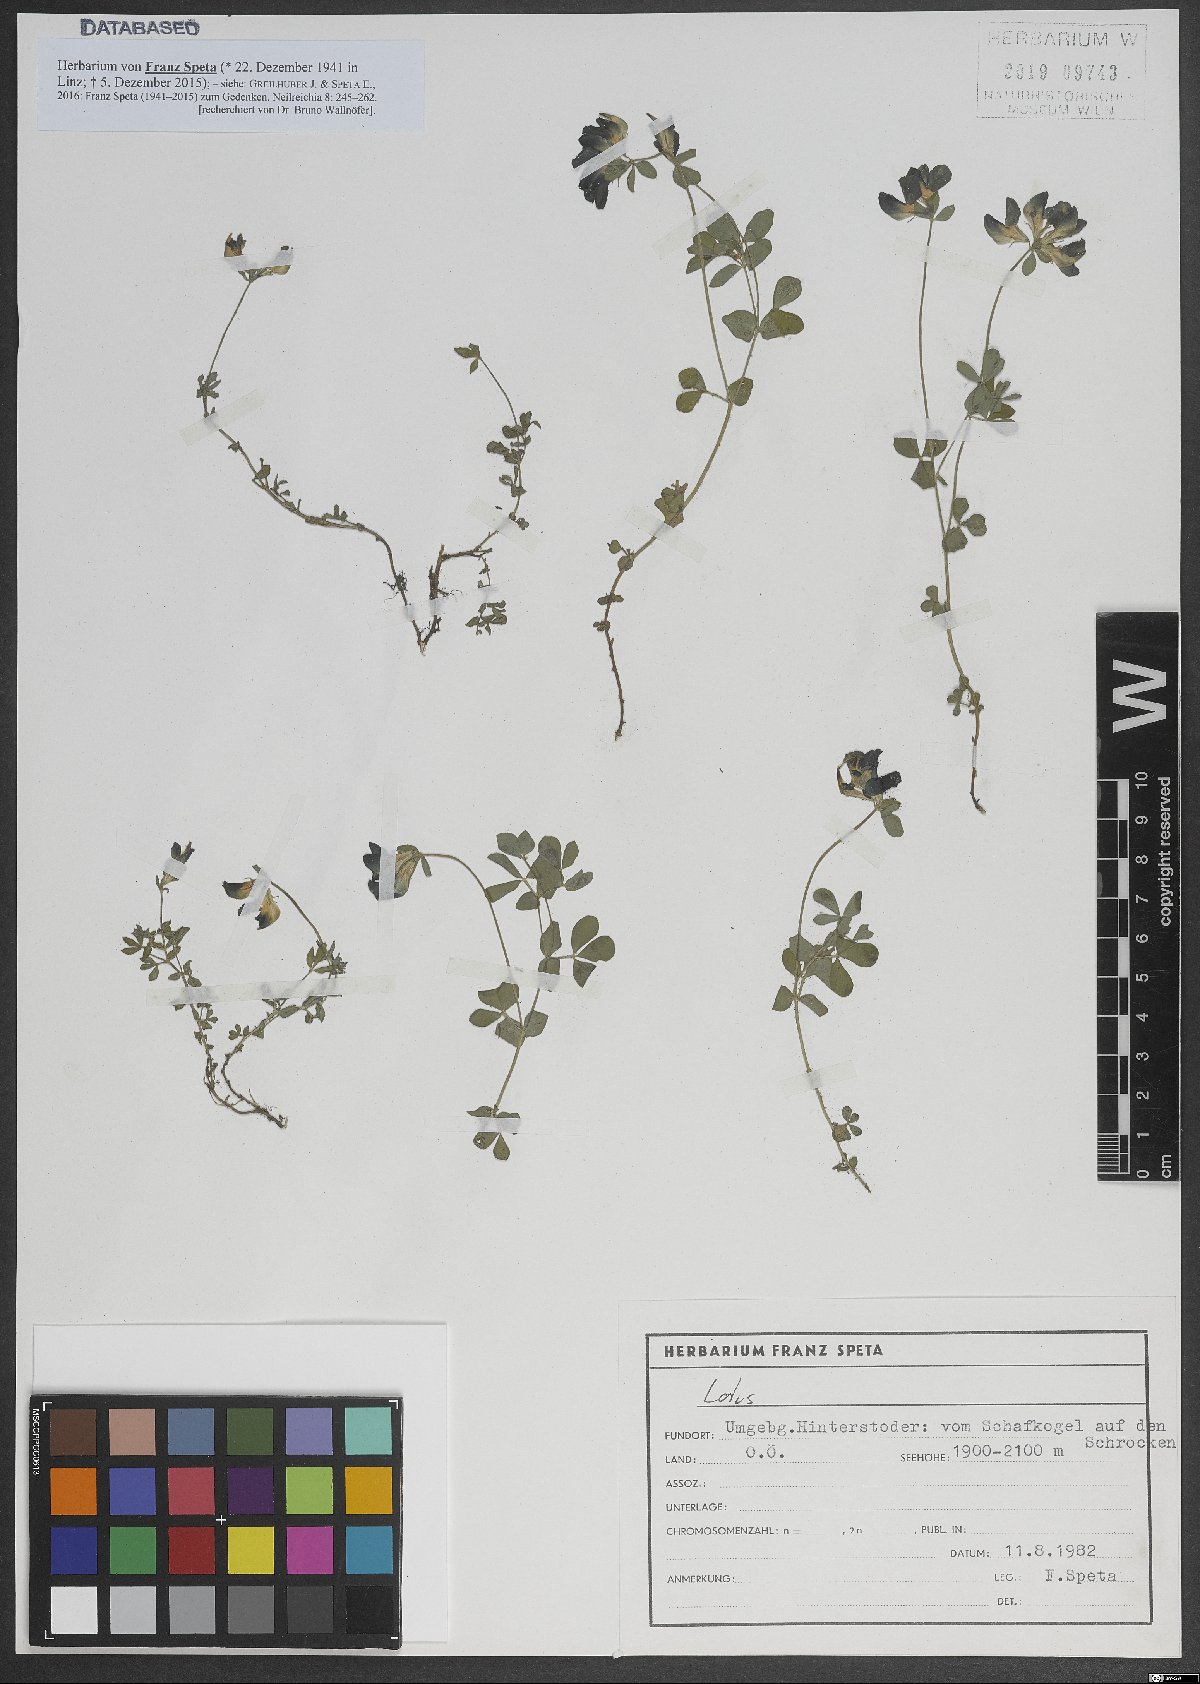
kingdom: Plantae
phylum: Tracheophyta
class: Magnoliopsida
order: Fabales
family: Fabaceae
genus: Lotus
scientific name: Lotus
